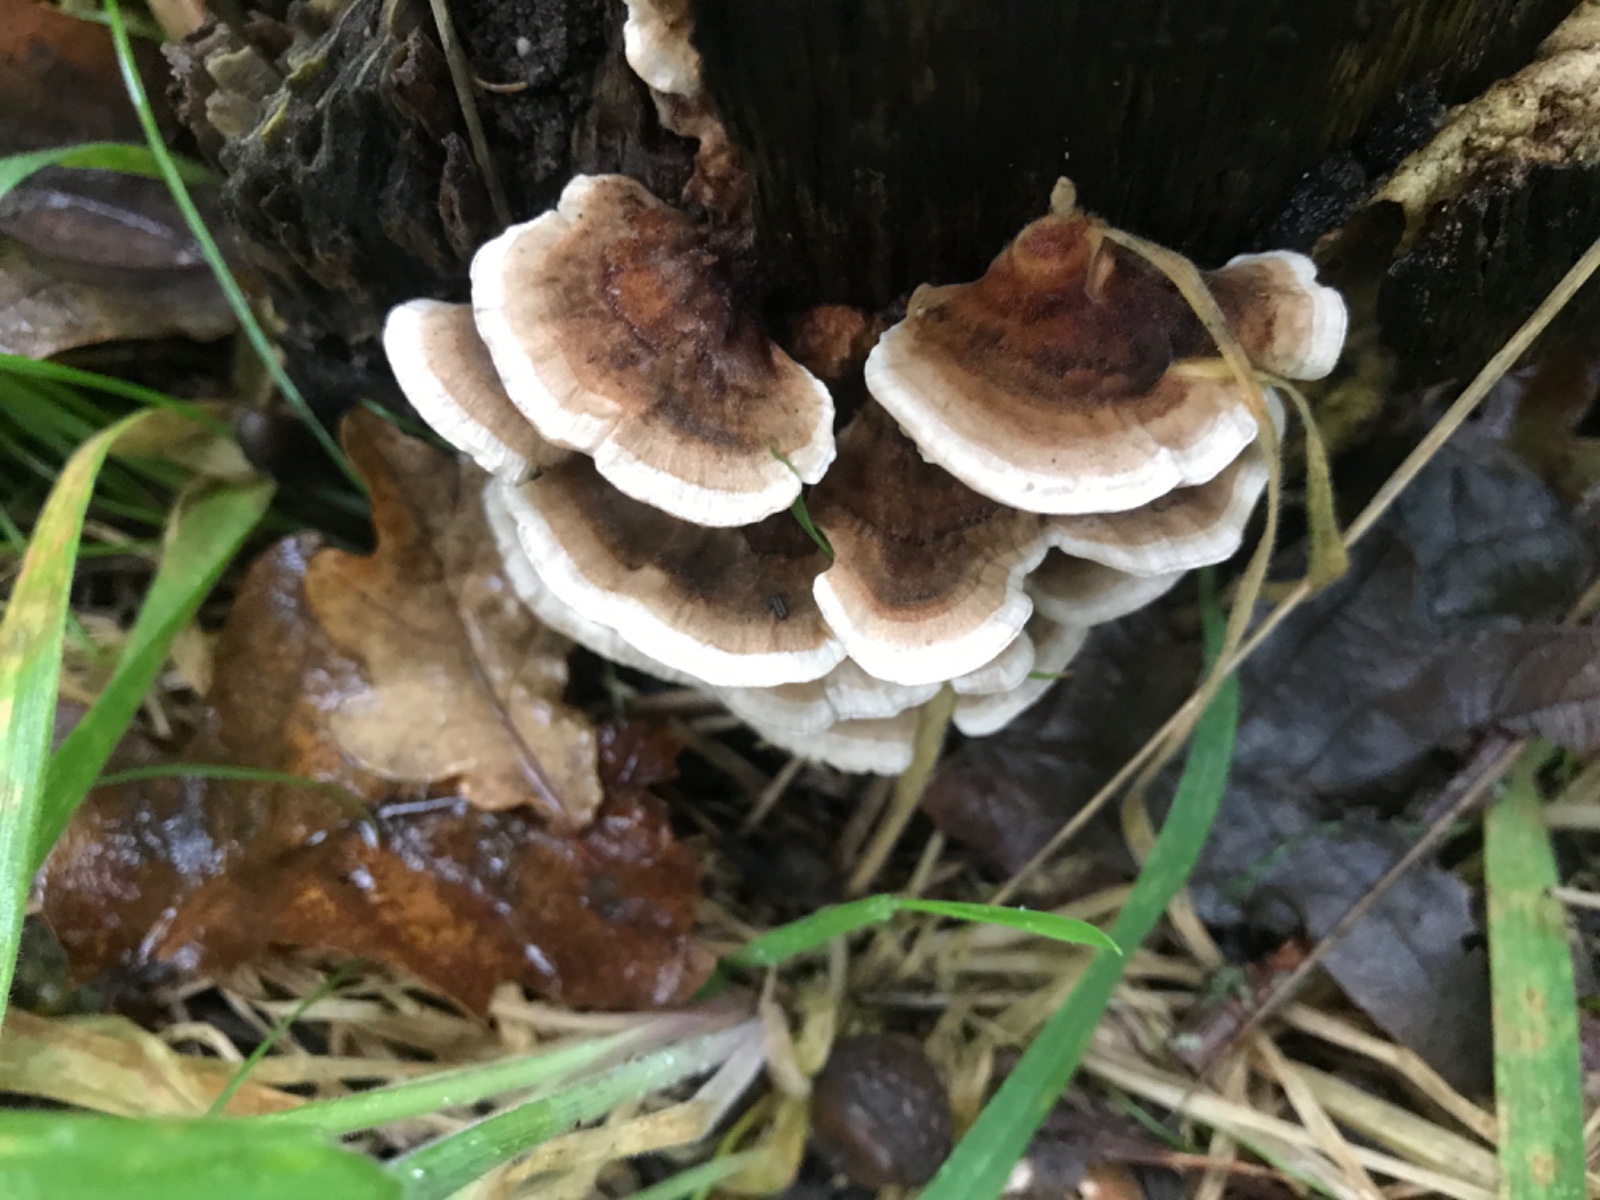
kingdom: Fungi
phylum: Basidiomycota
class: Agaricomycetes
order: Polyporales
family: Polyporaceae
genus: Trametes
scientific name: Trametes versicolor
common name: broget læderporesvamp
